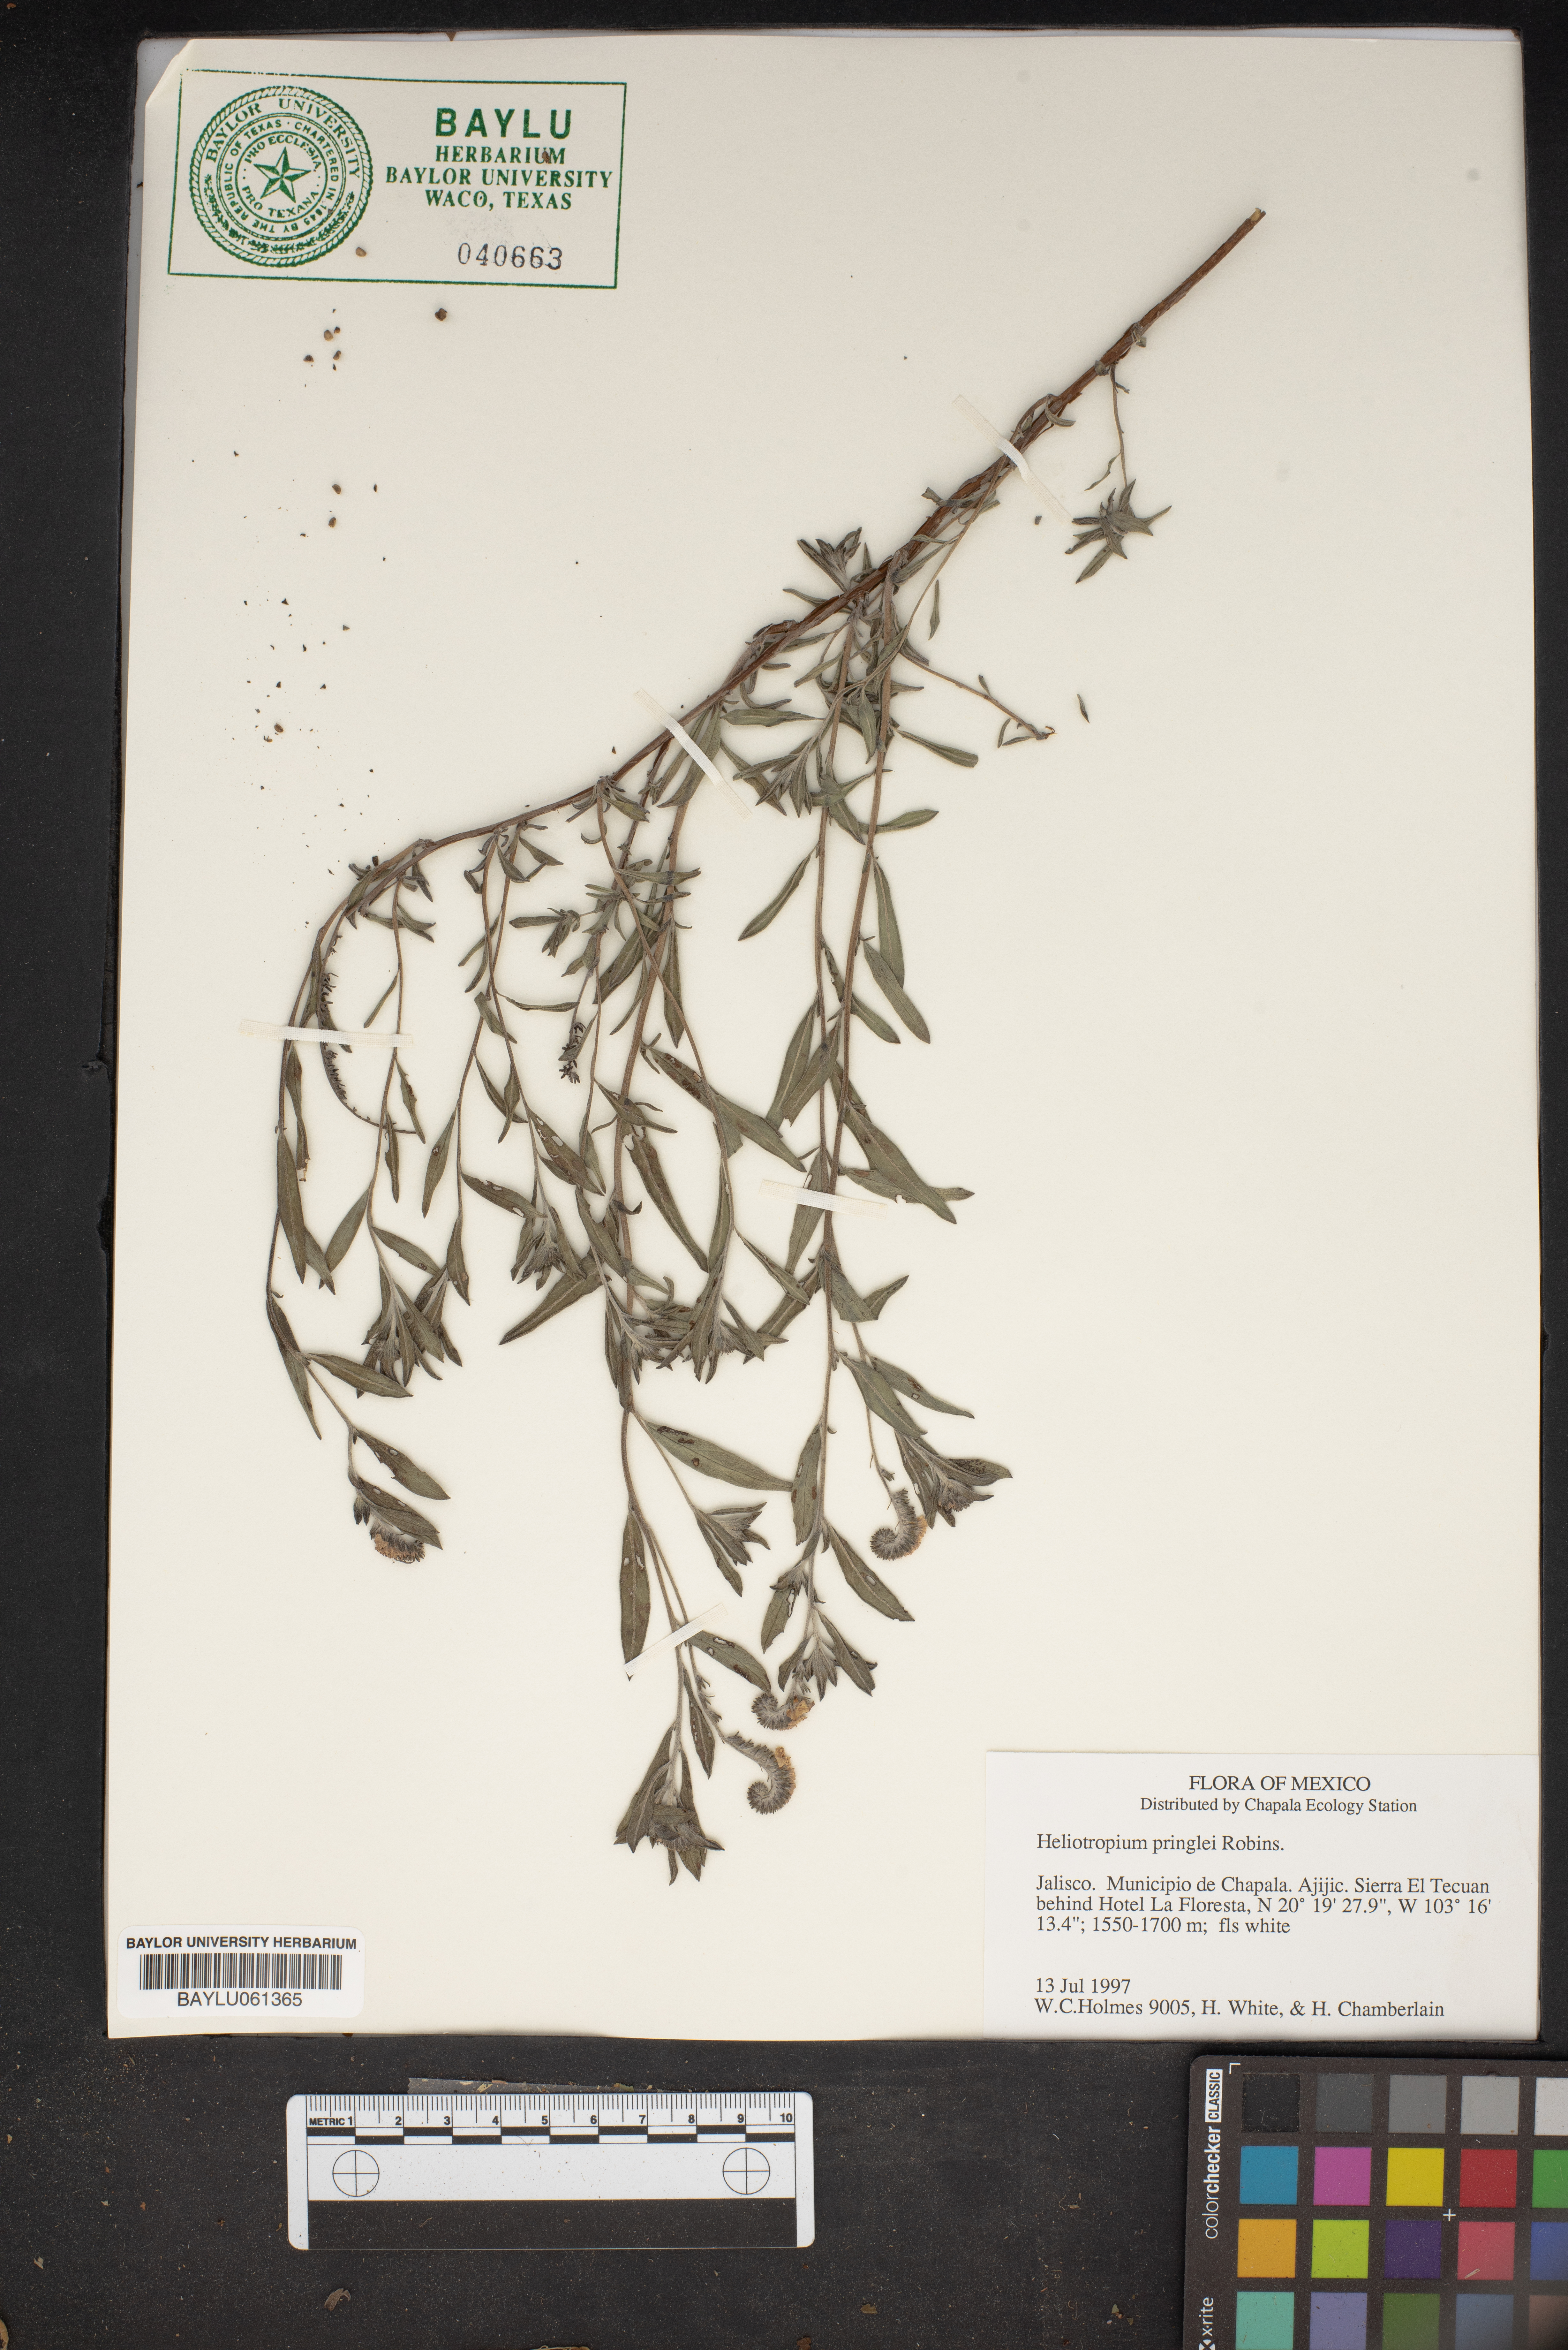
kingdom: Plantae
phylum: Tracheophyta
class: Magnoliopsida
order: Boraginales
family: Heliotropiaceae
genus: Euploca
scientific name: Euploca pringlei
